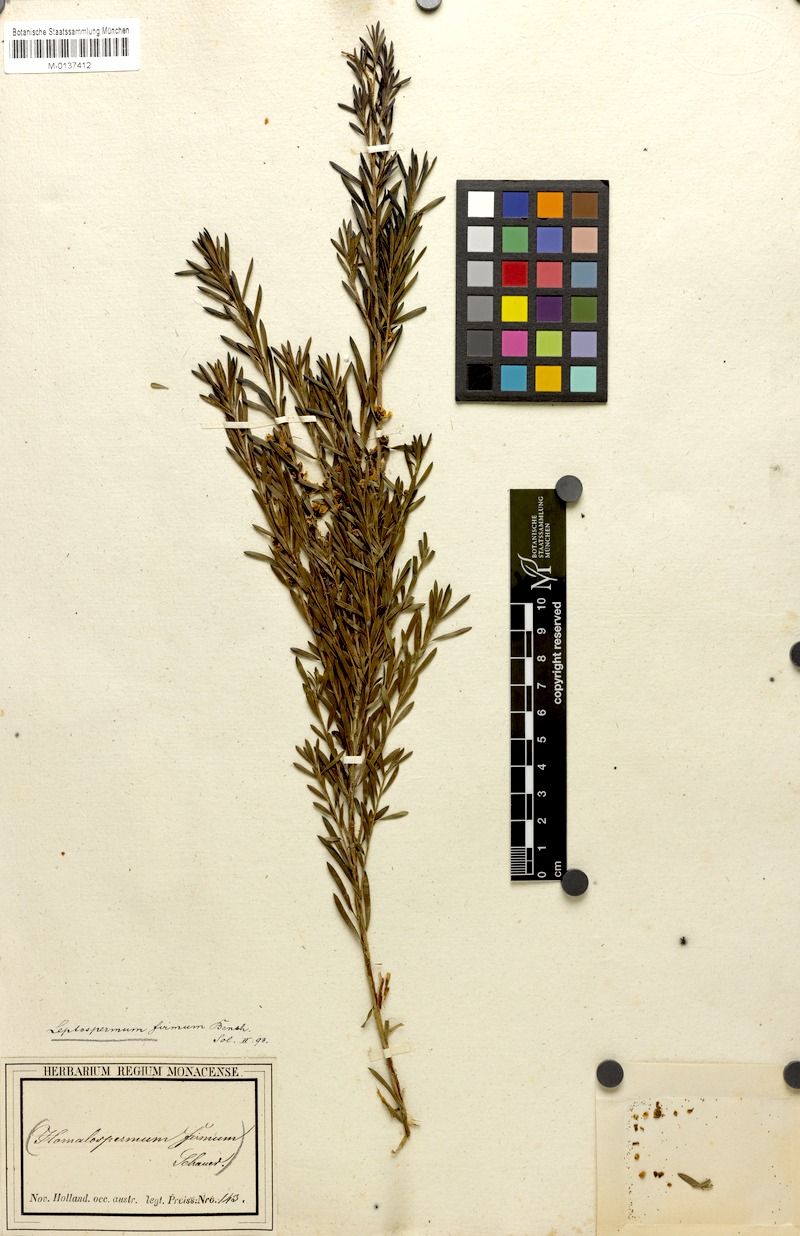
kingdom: Plantae
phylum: Tracheophyta
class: Magnoliopsida
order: Myrtales
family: Myrtaceae
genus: Homalospermum
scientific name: Homalospermum firmum
